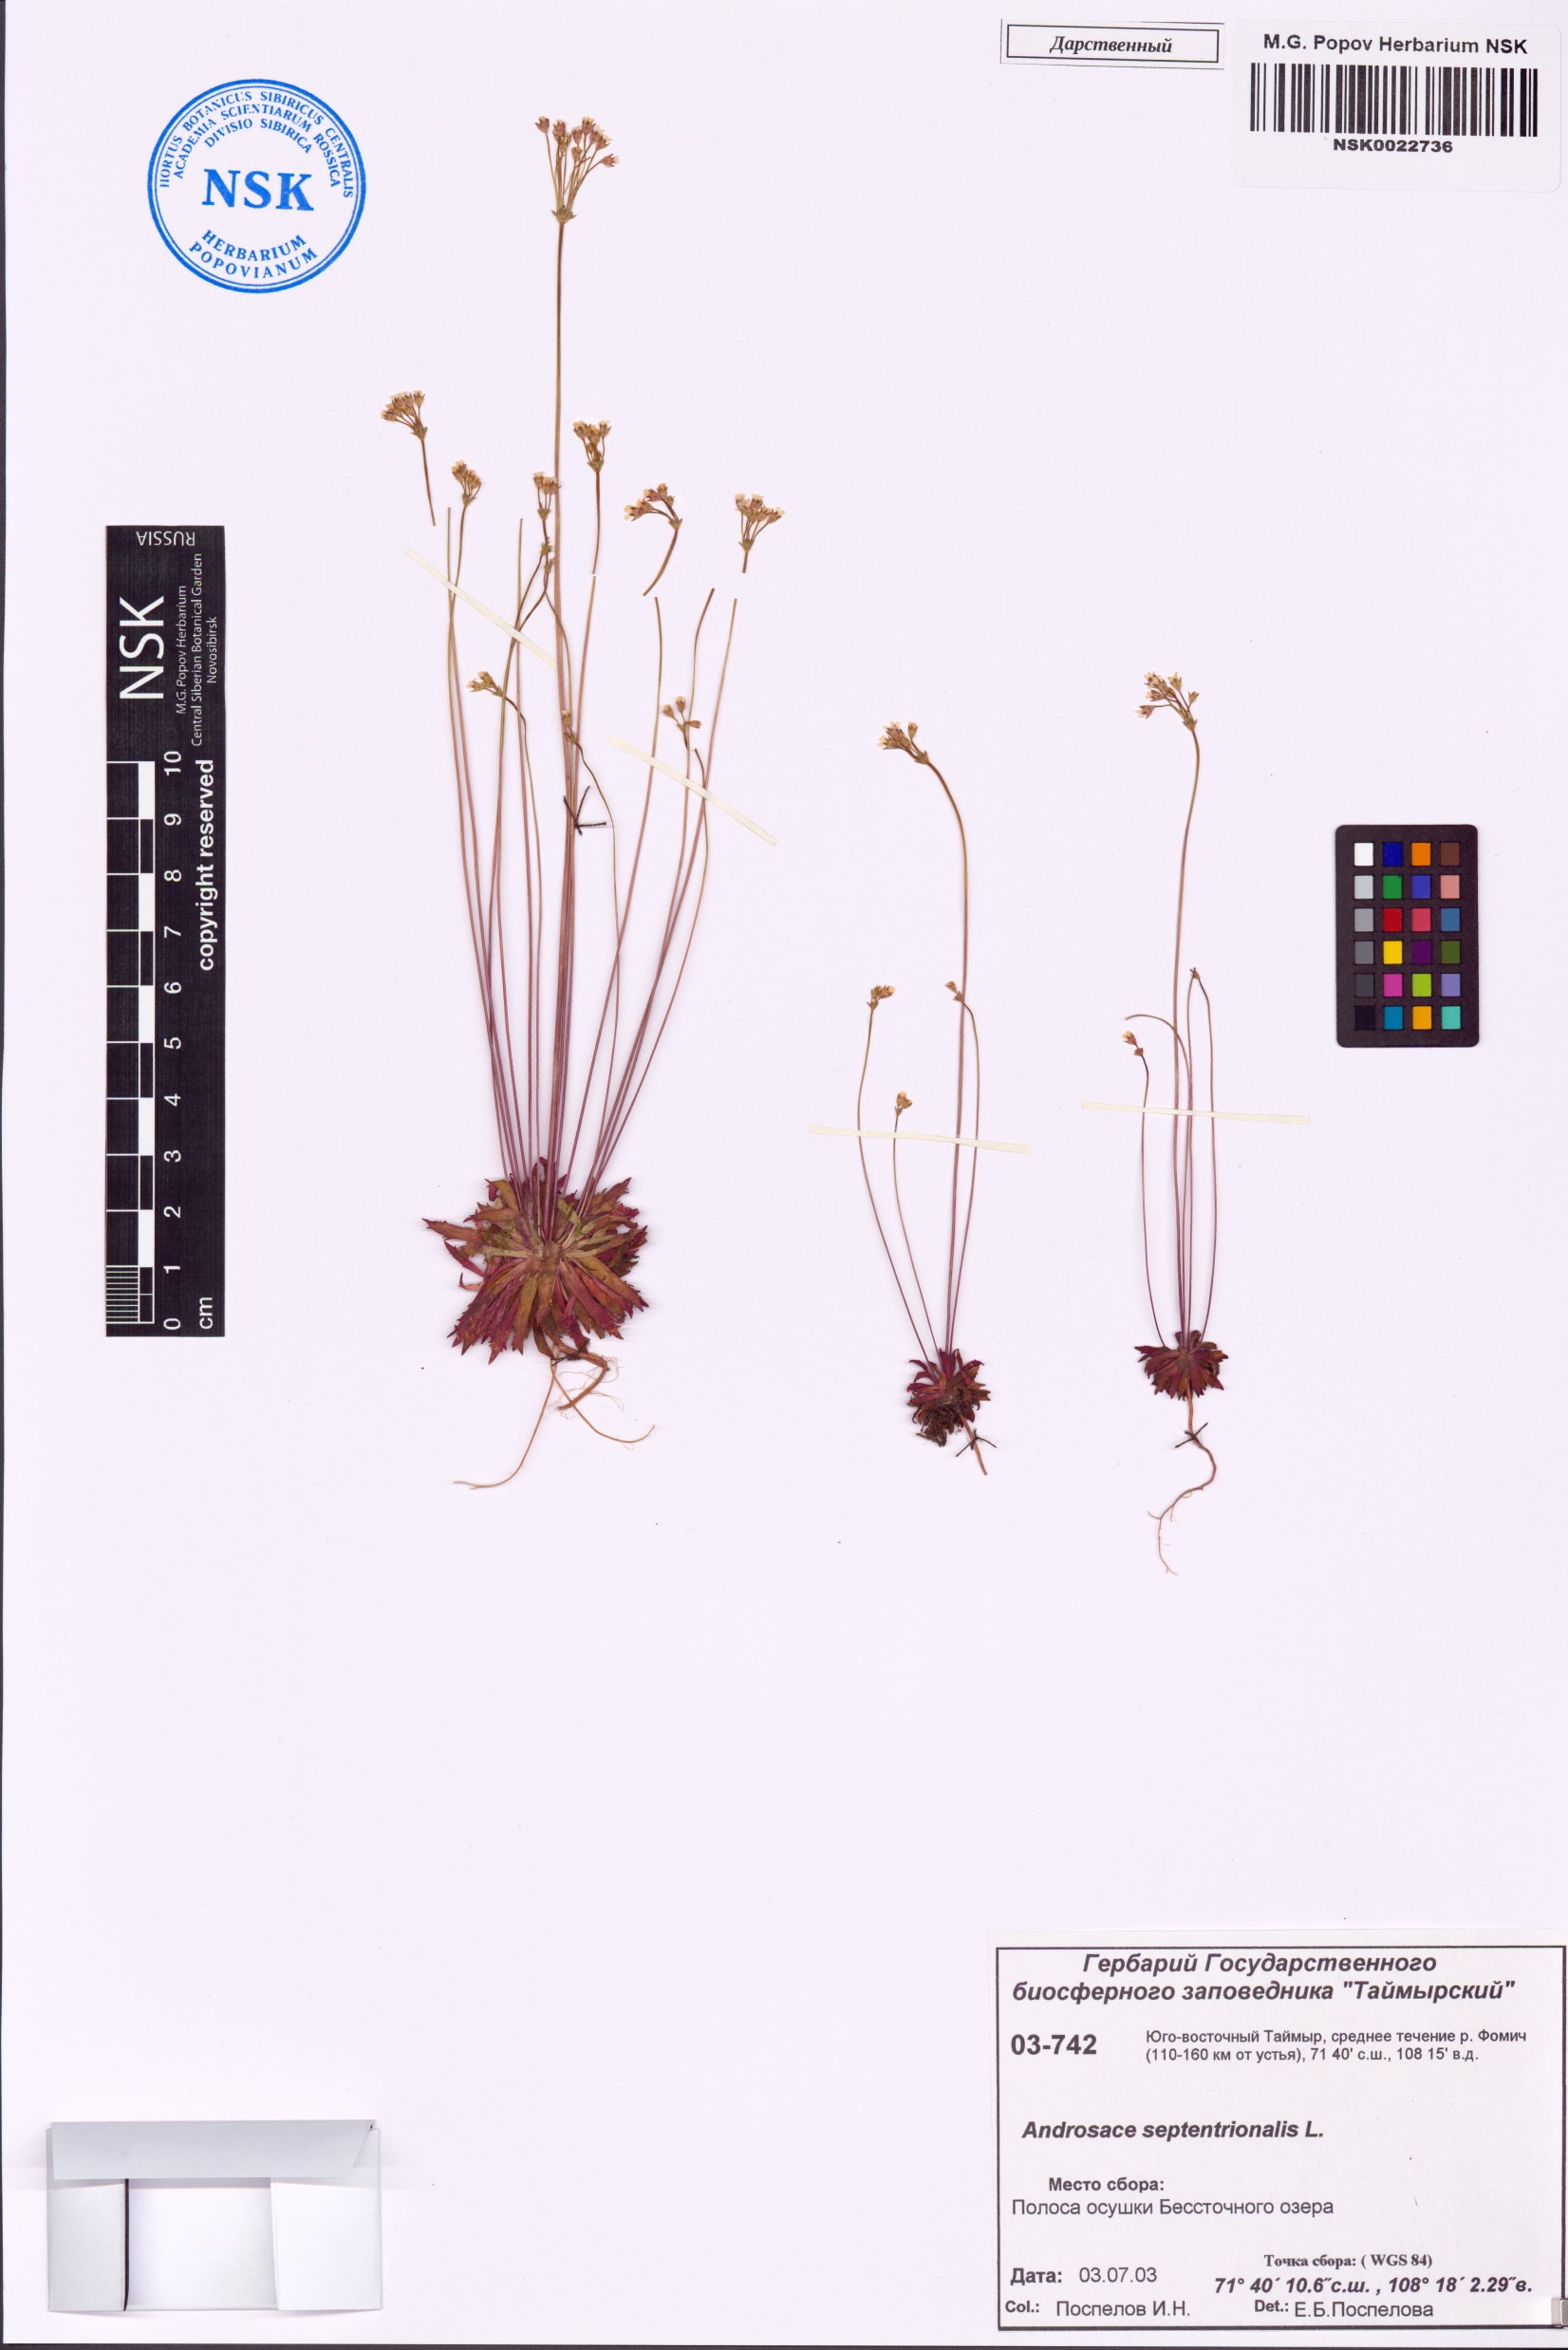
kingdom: Plantae
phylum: Tracheophyta
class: Magnoliopsida
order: Ericales
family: Primulaceae
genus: Androsace
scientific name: Androsace septentrionalis
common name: Hairy northern fairy-candelabra
